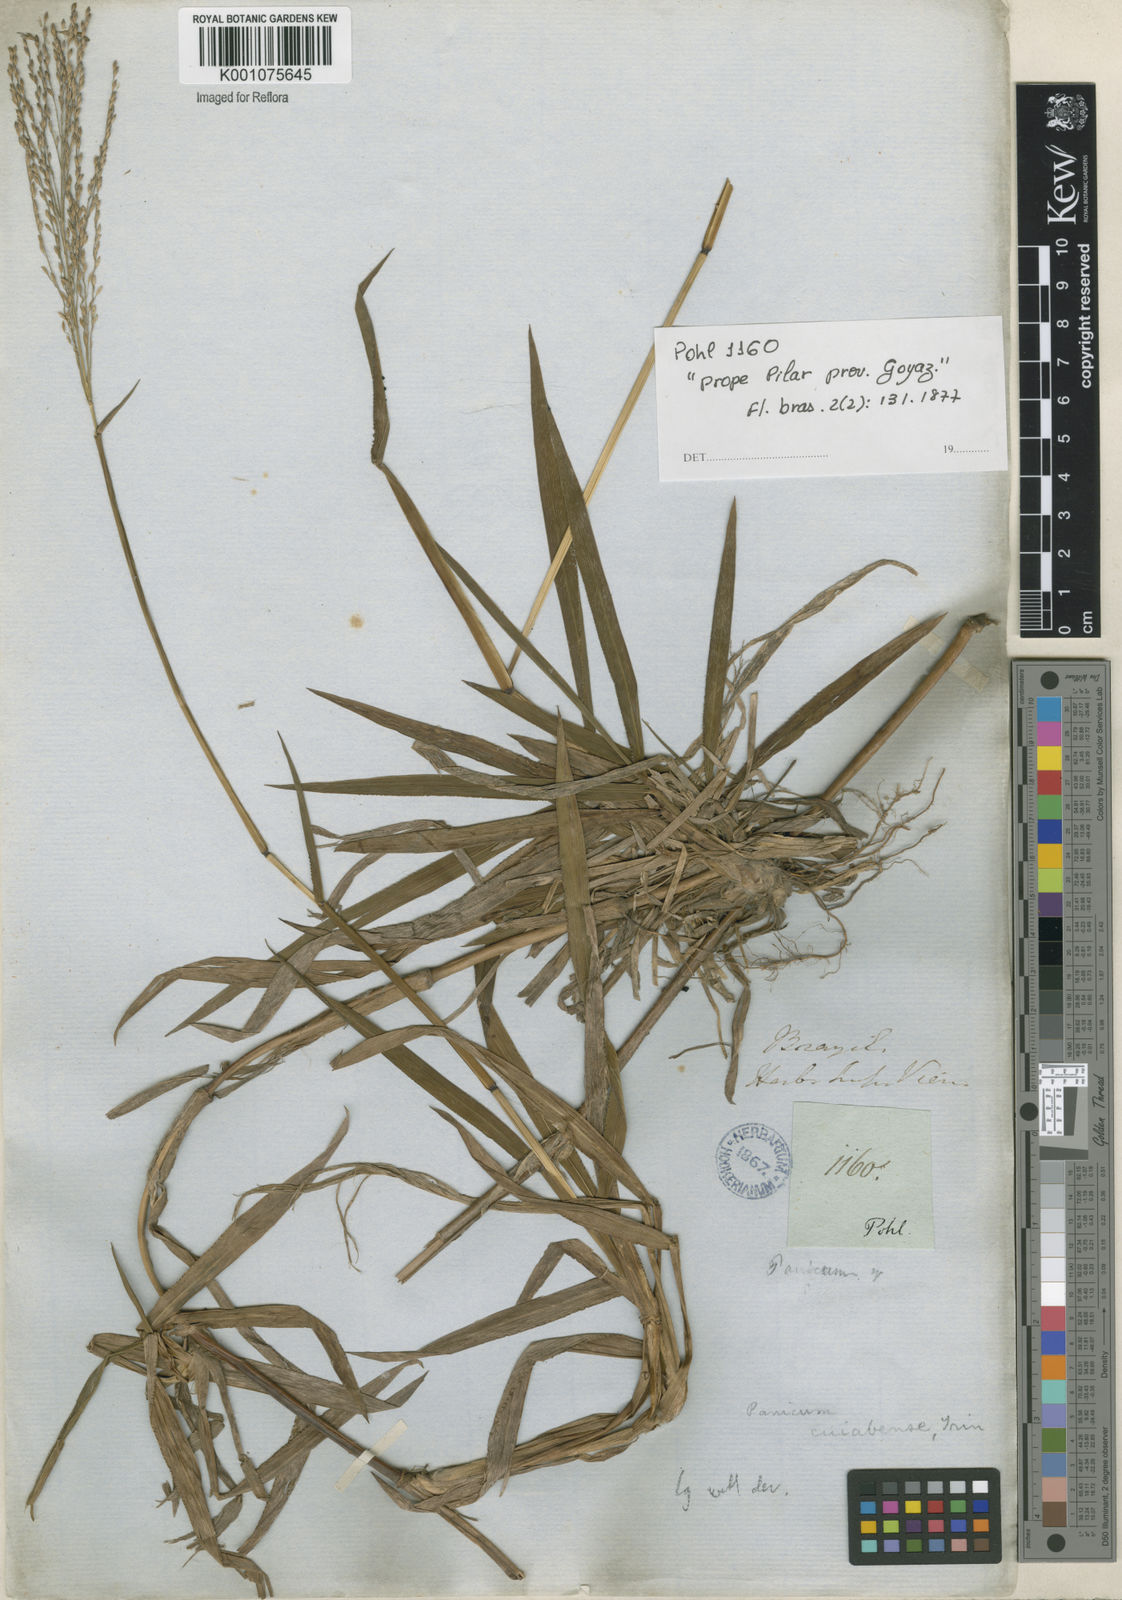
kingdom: Plantae
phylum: Tracheophyta
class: Liliopsida
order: Poales
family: Poaceae
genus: Digitaria
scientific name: Digitaria cuyabensis
